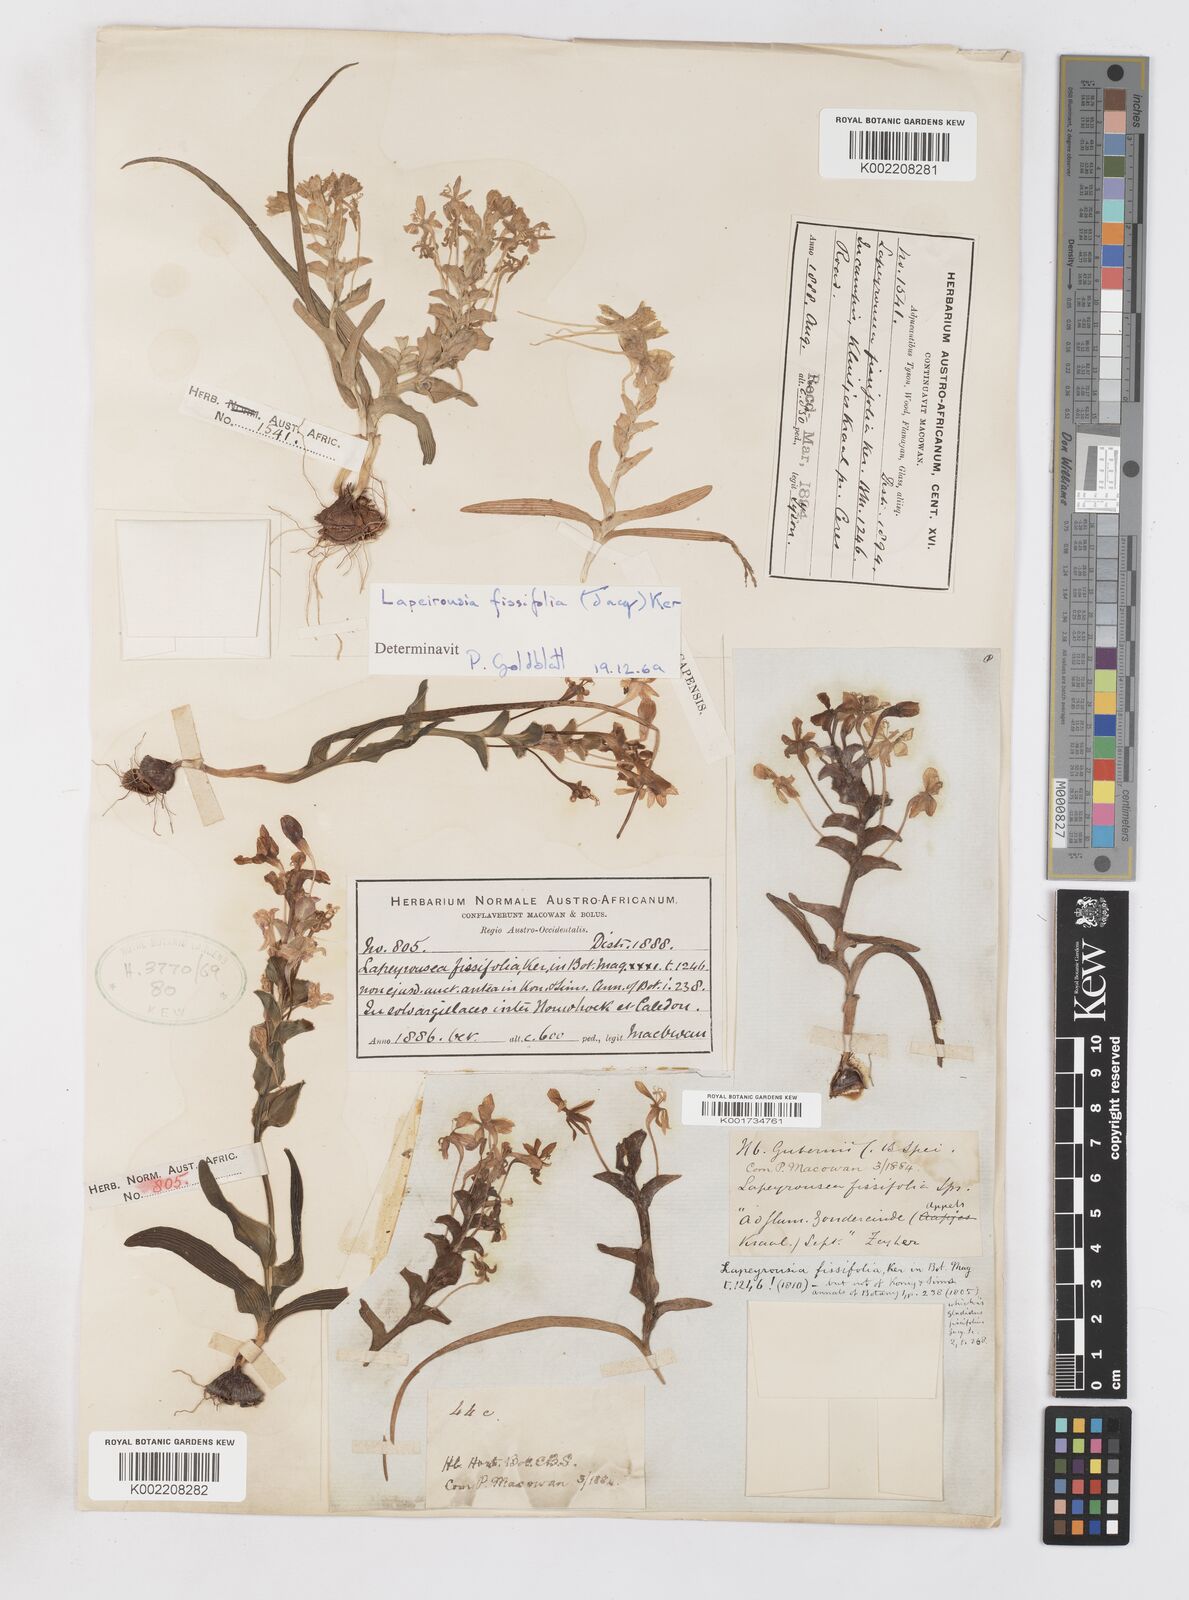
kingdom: Plantae
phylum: Tracheophyta
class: Liliopsida
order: Asparagales
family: Iridaceae
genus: Lapeirousia
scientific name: Lapeirousia pyramidalis
